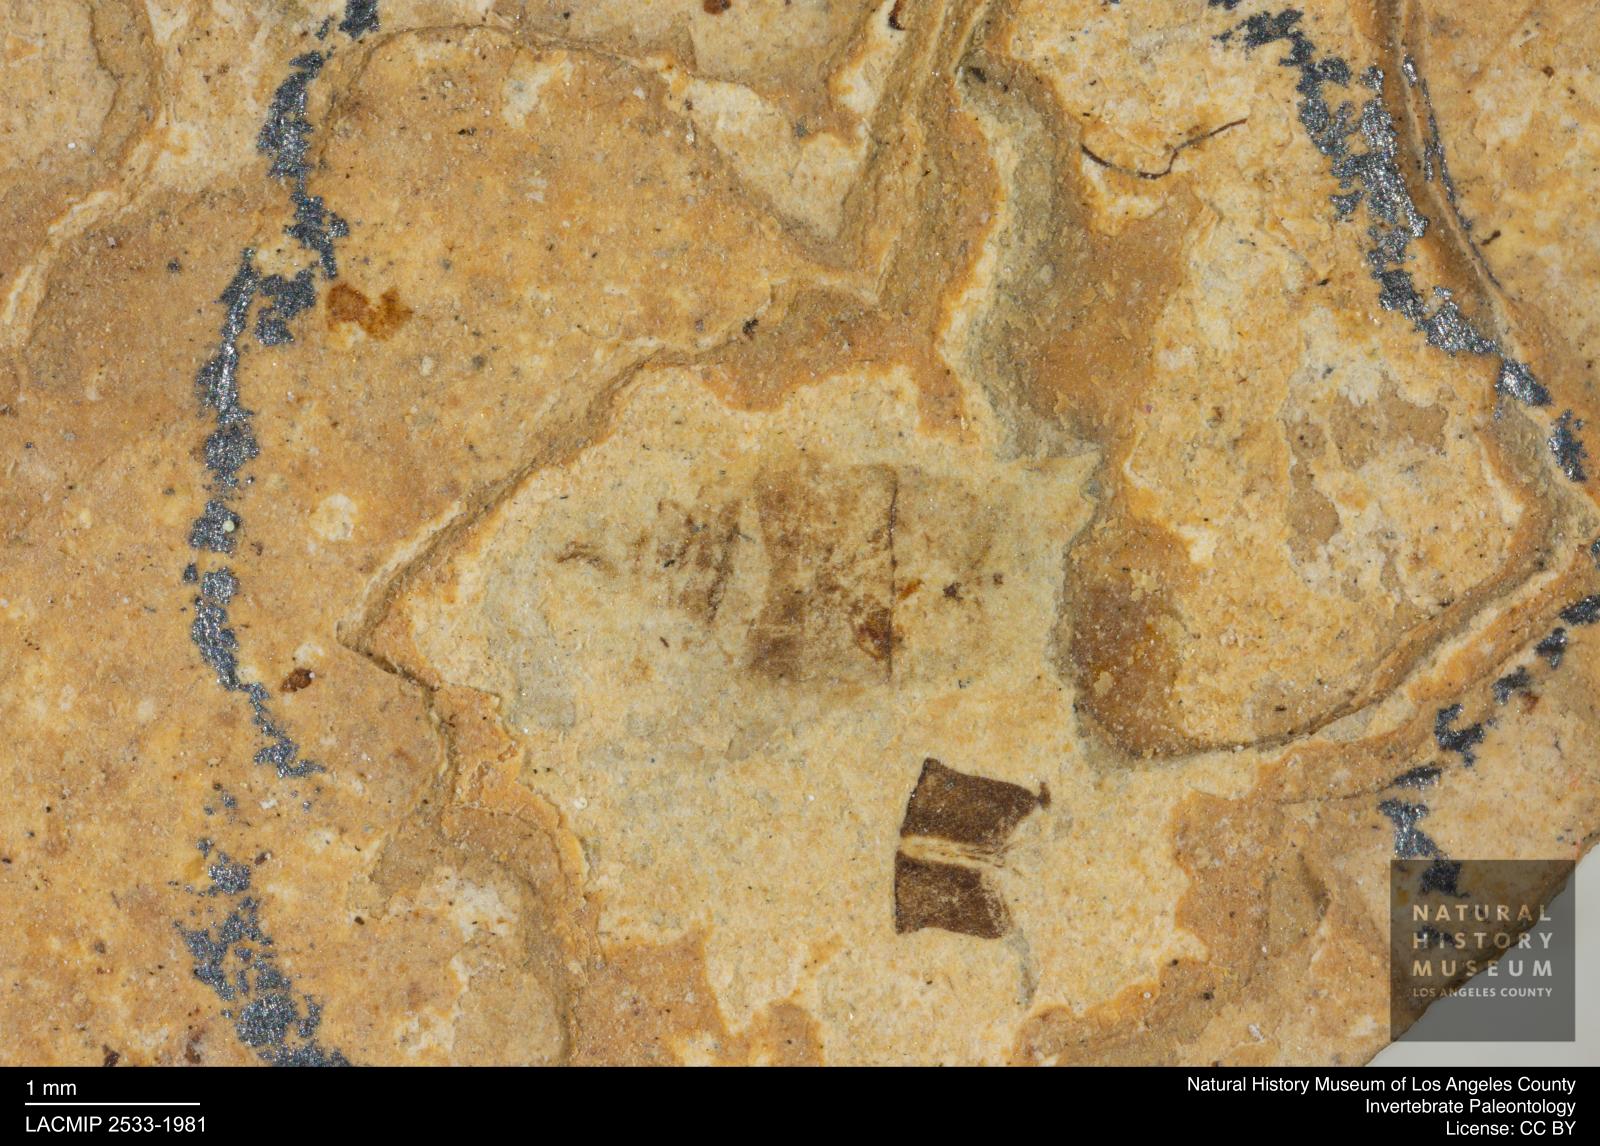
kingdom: Animalia
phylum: Arthropoda
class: Insecta
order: Hemiptera
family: Notonectidae
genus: Anisops
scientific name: Anisops Notonecta deichmuelleri
